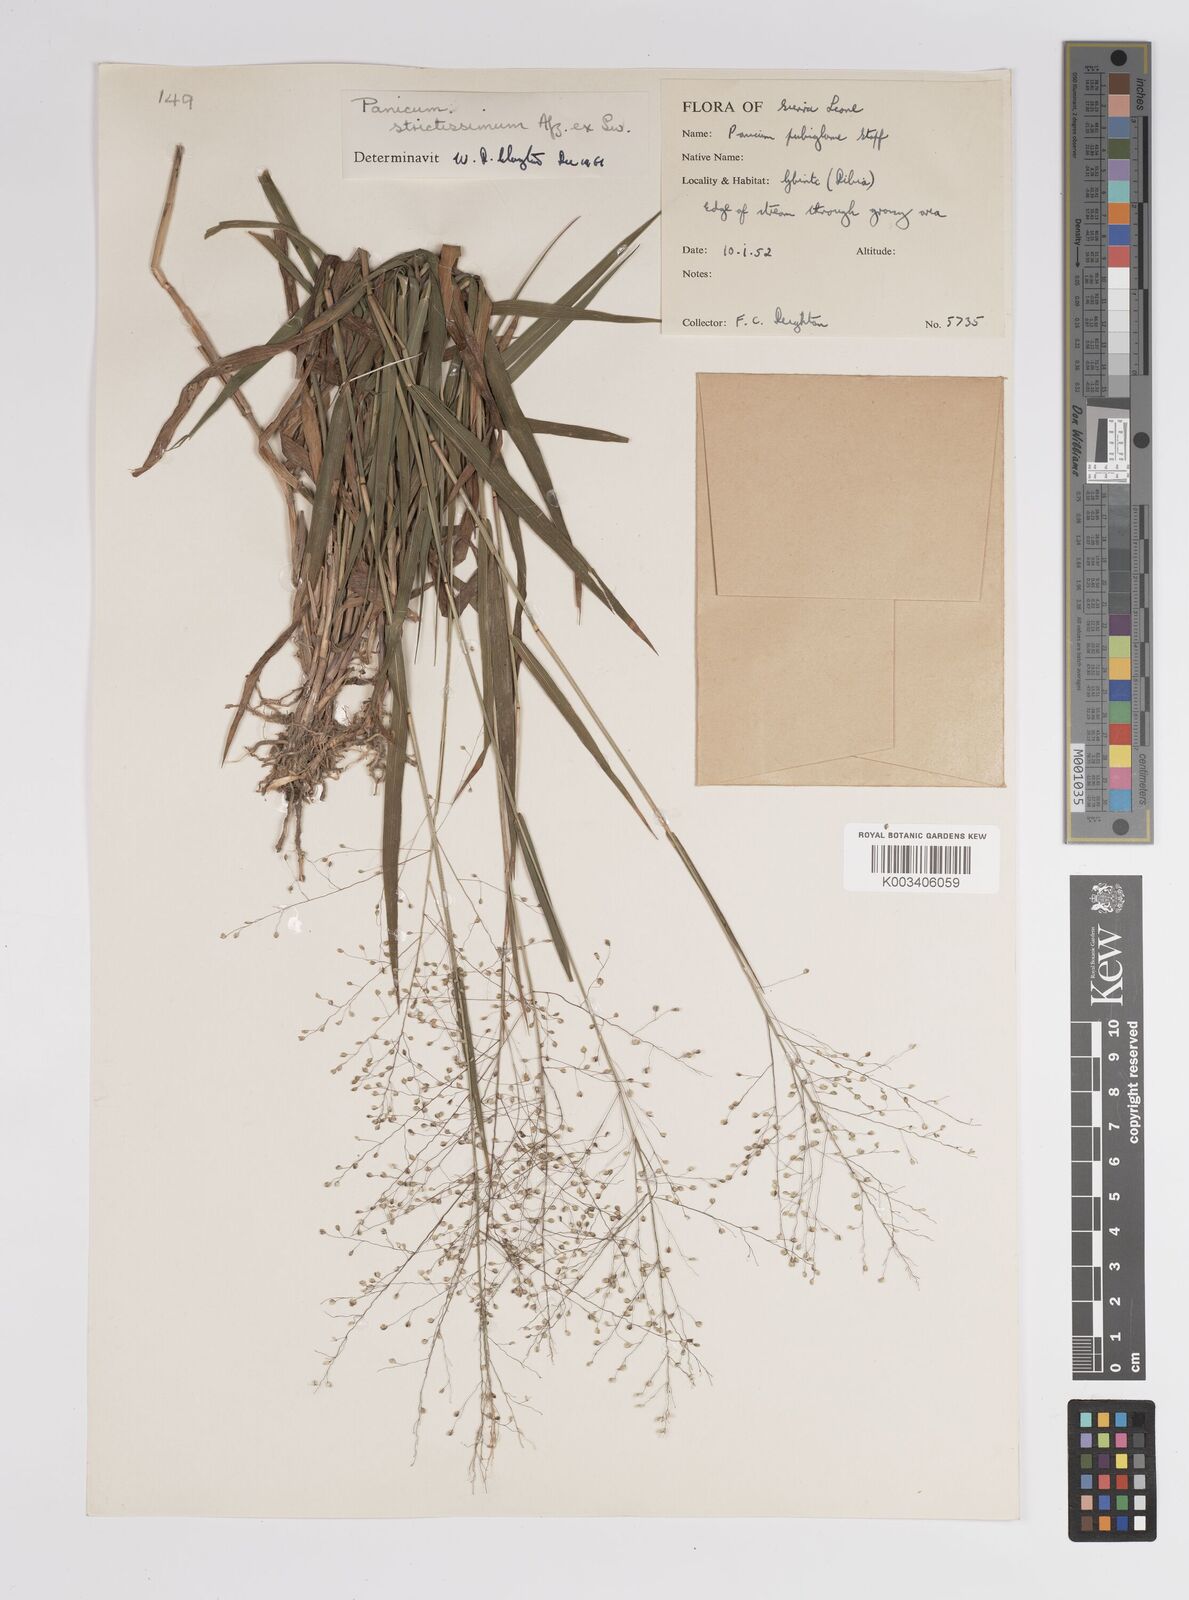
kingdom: Plantae
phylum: Tracheophyta
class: Liliopsida
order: Poales
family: Poaceae
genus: Trichanthecium
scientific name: Trichanthecium strictissimum
